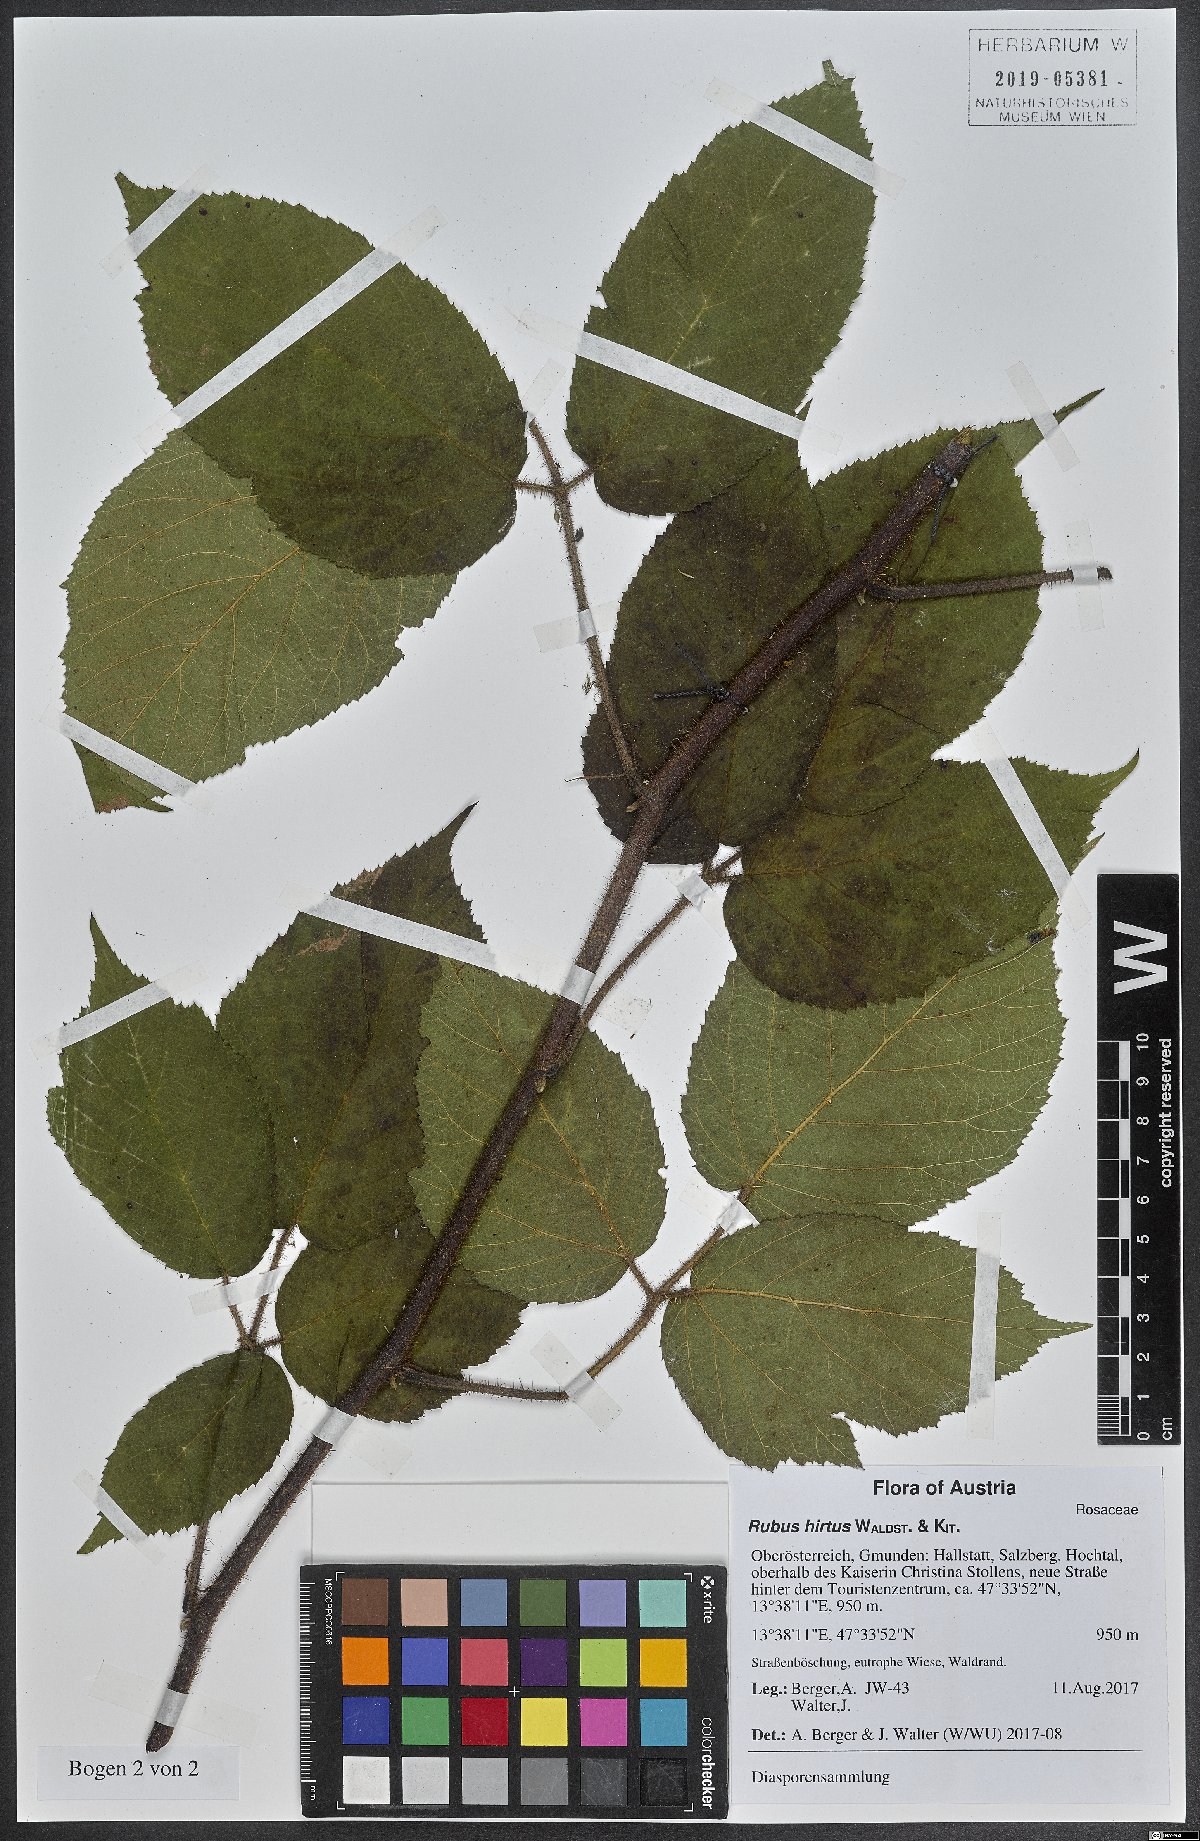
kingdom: Plantae
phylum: Tracheophyta
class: Magnoliopsida
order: Rosales
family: Rosaceae
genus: Rubus
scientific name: Rubus hirtus
